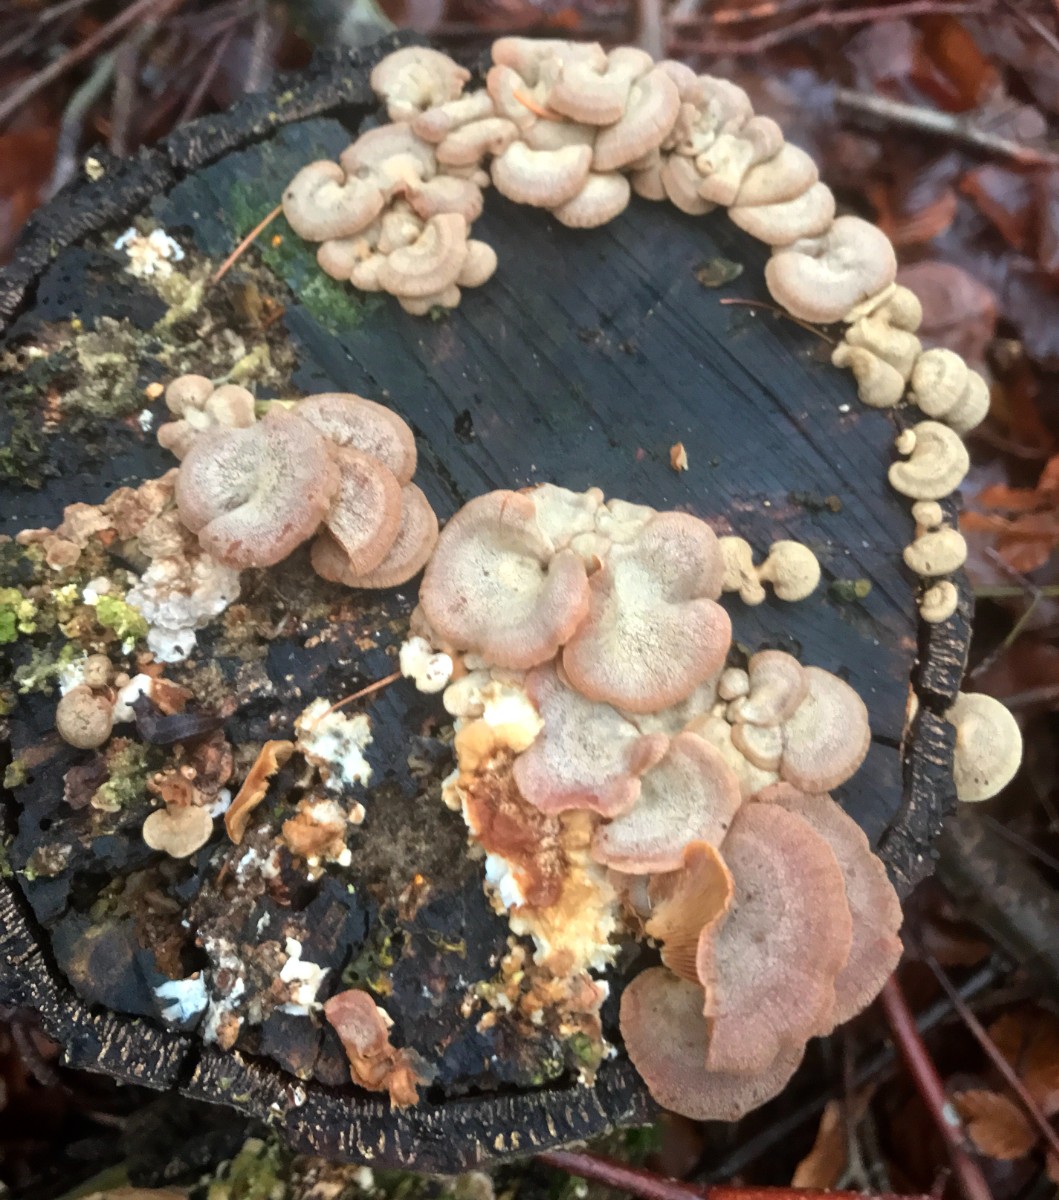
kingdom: Fungi
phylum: Basidiomycota
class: Agaricomycetes
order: Agaricales
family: Mycenaceae
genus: Panellus
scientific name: Panellus stipticus
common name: kliddet epaulethat
